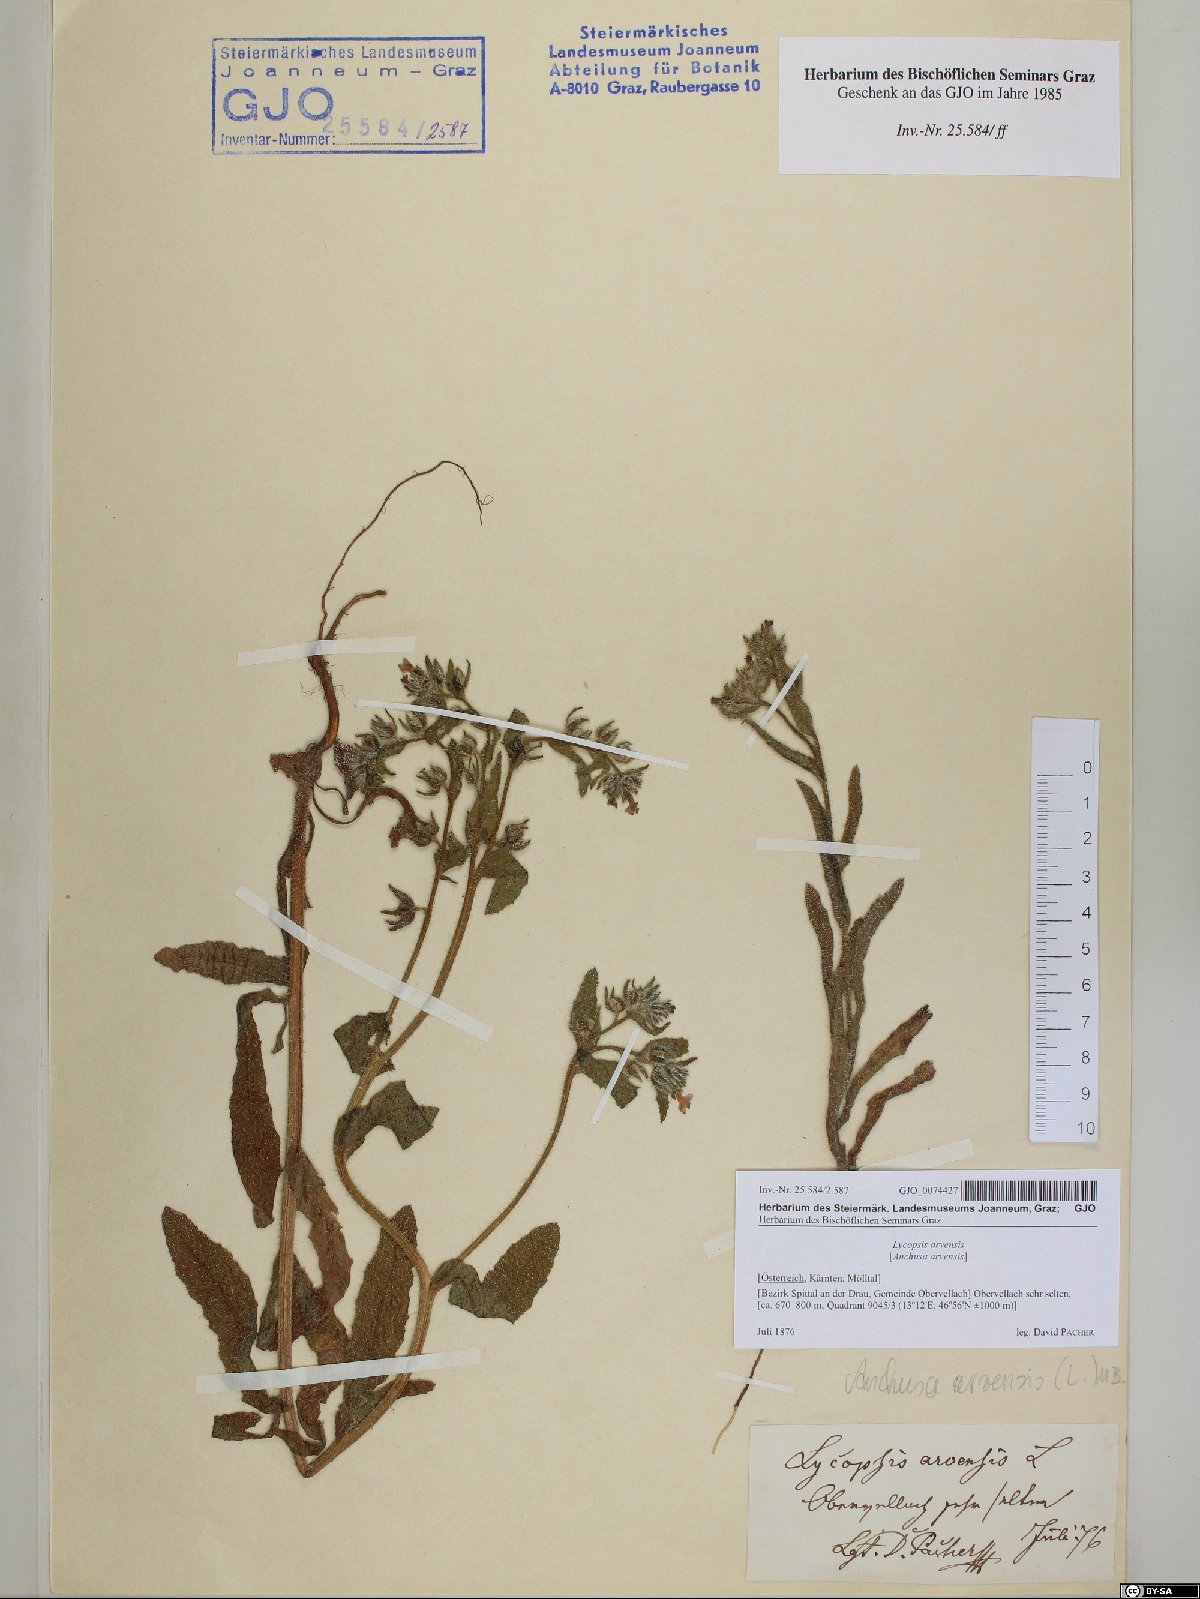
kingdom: Plantae
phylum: Tracheophyta
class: Magnoliopsida
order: Boraginales
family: Boraginaceae
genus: Lycopsis
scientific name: Lycopsis arvensis
